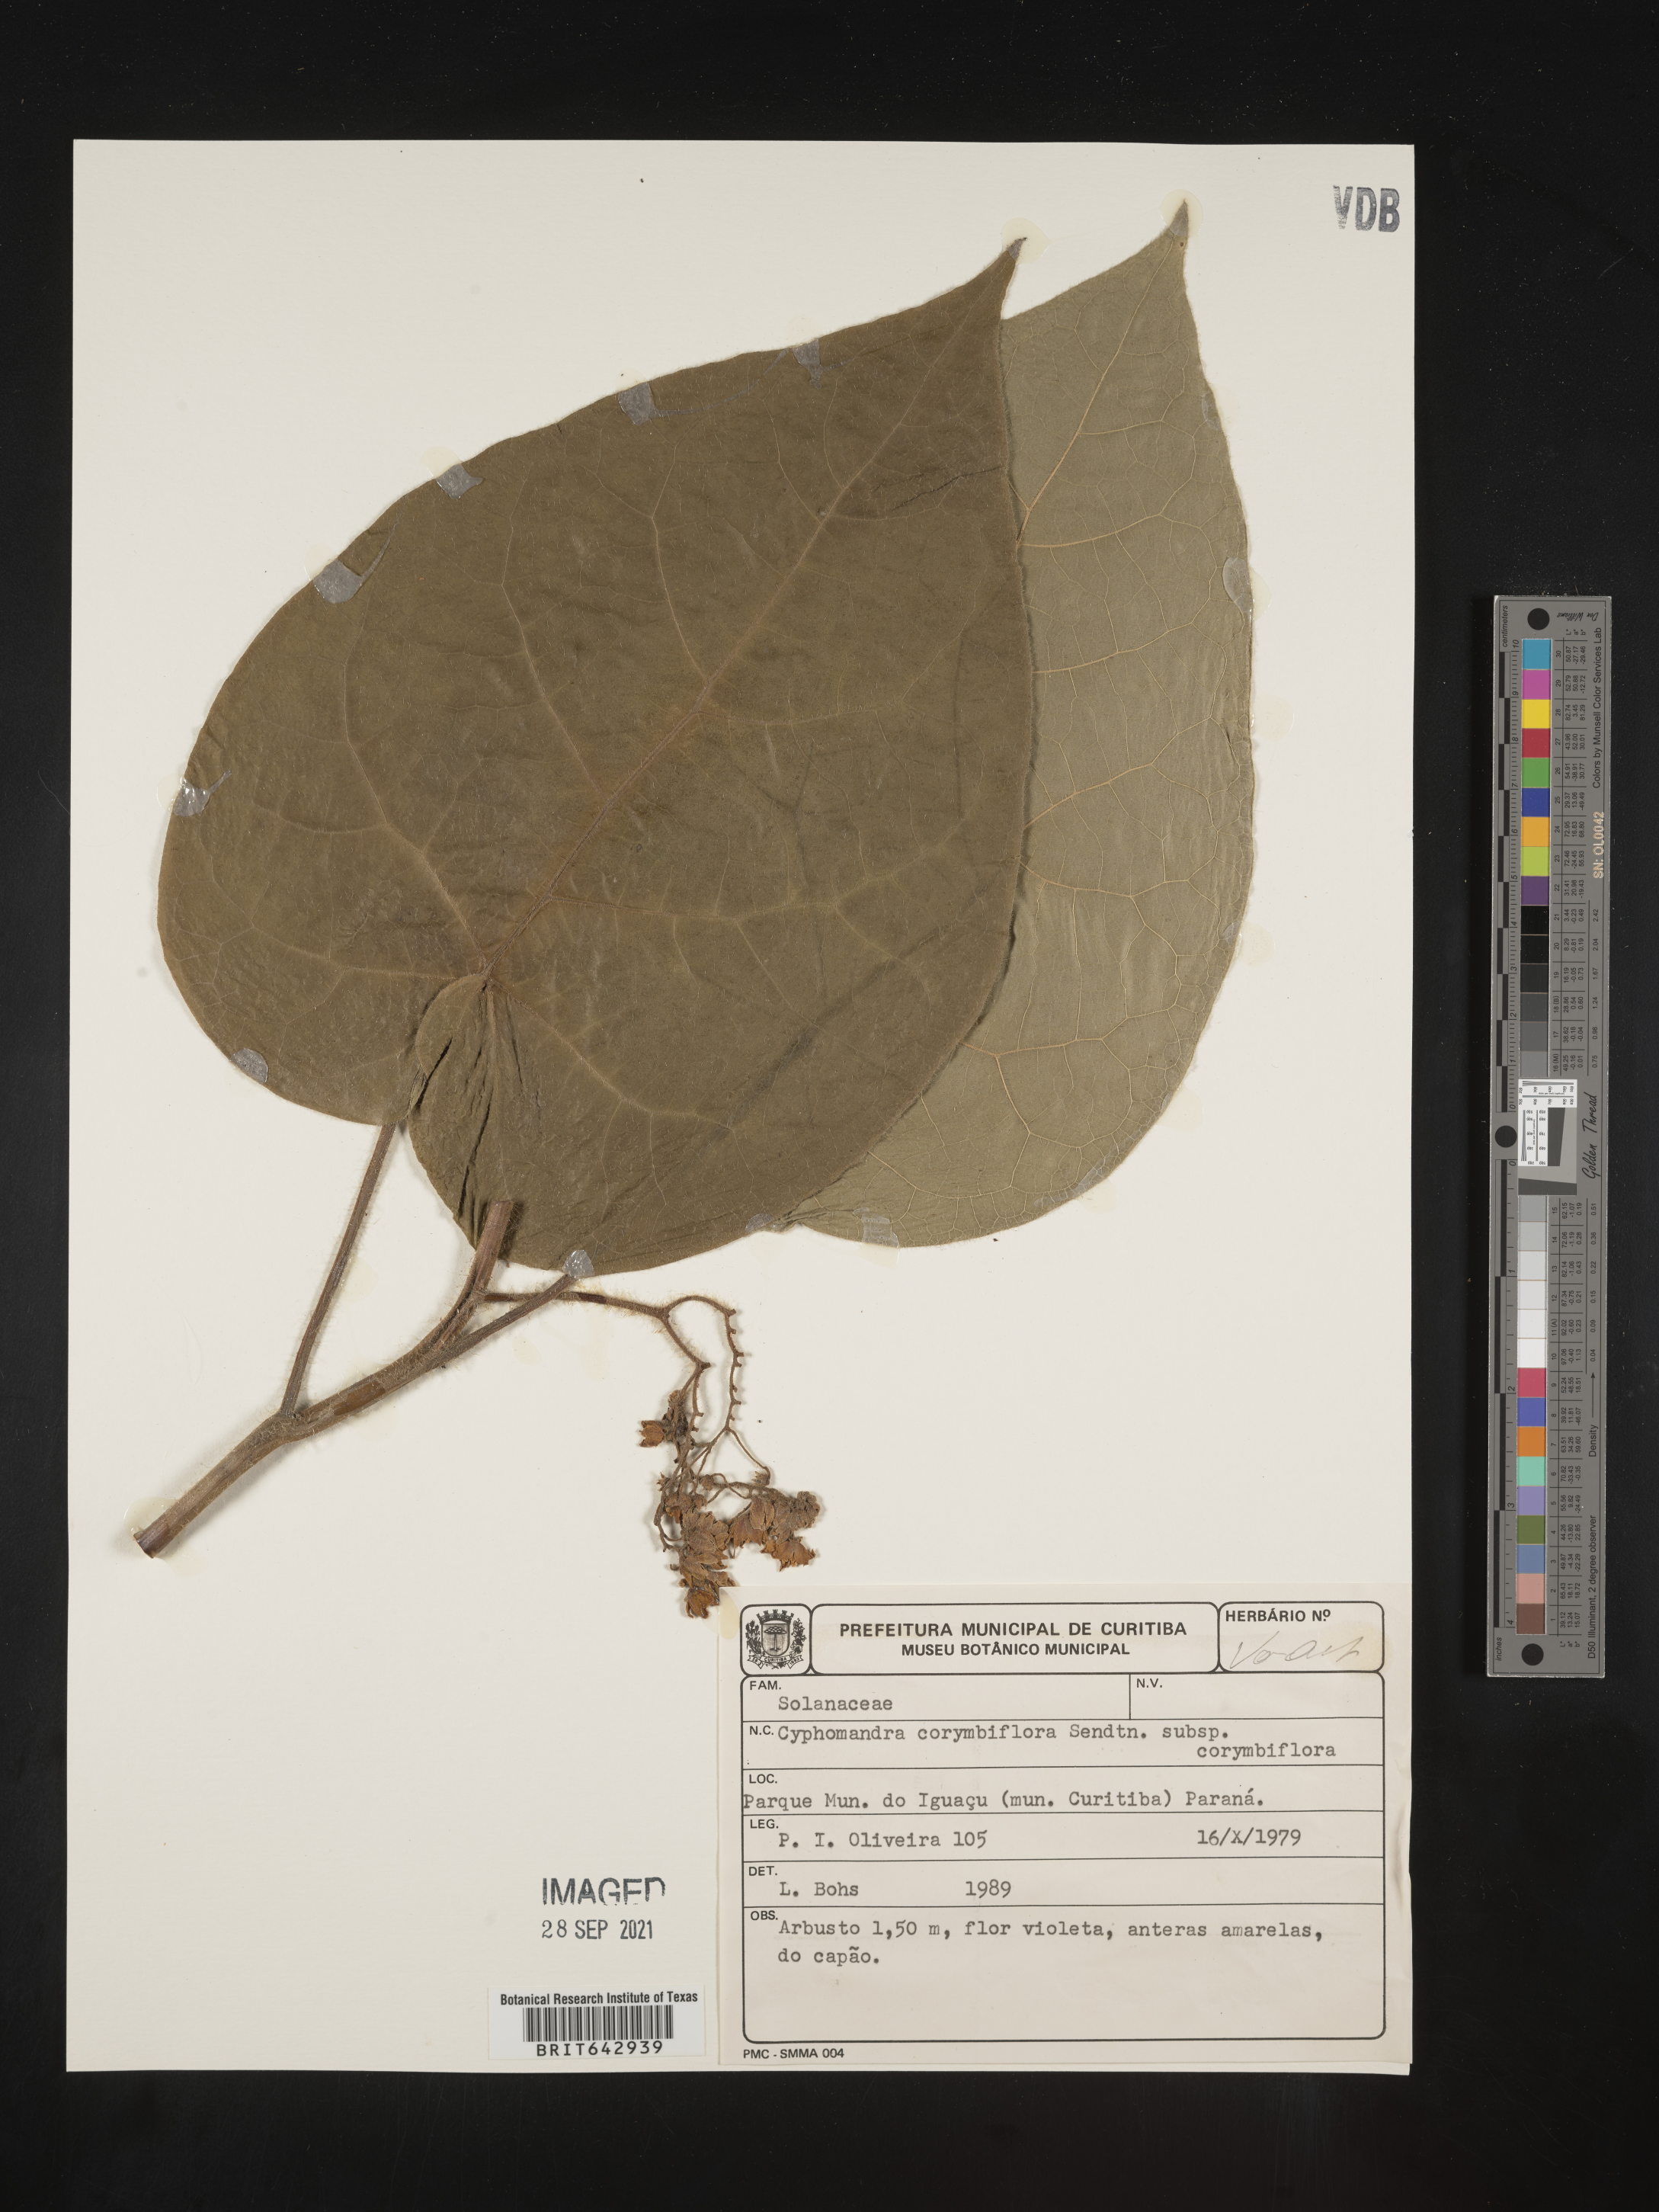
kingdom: Plantae
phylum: Tracheophyta
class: Magnoliopsida
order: Solanales
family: Solanaceae
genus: Solanum
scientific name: Solanum
